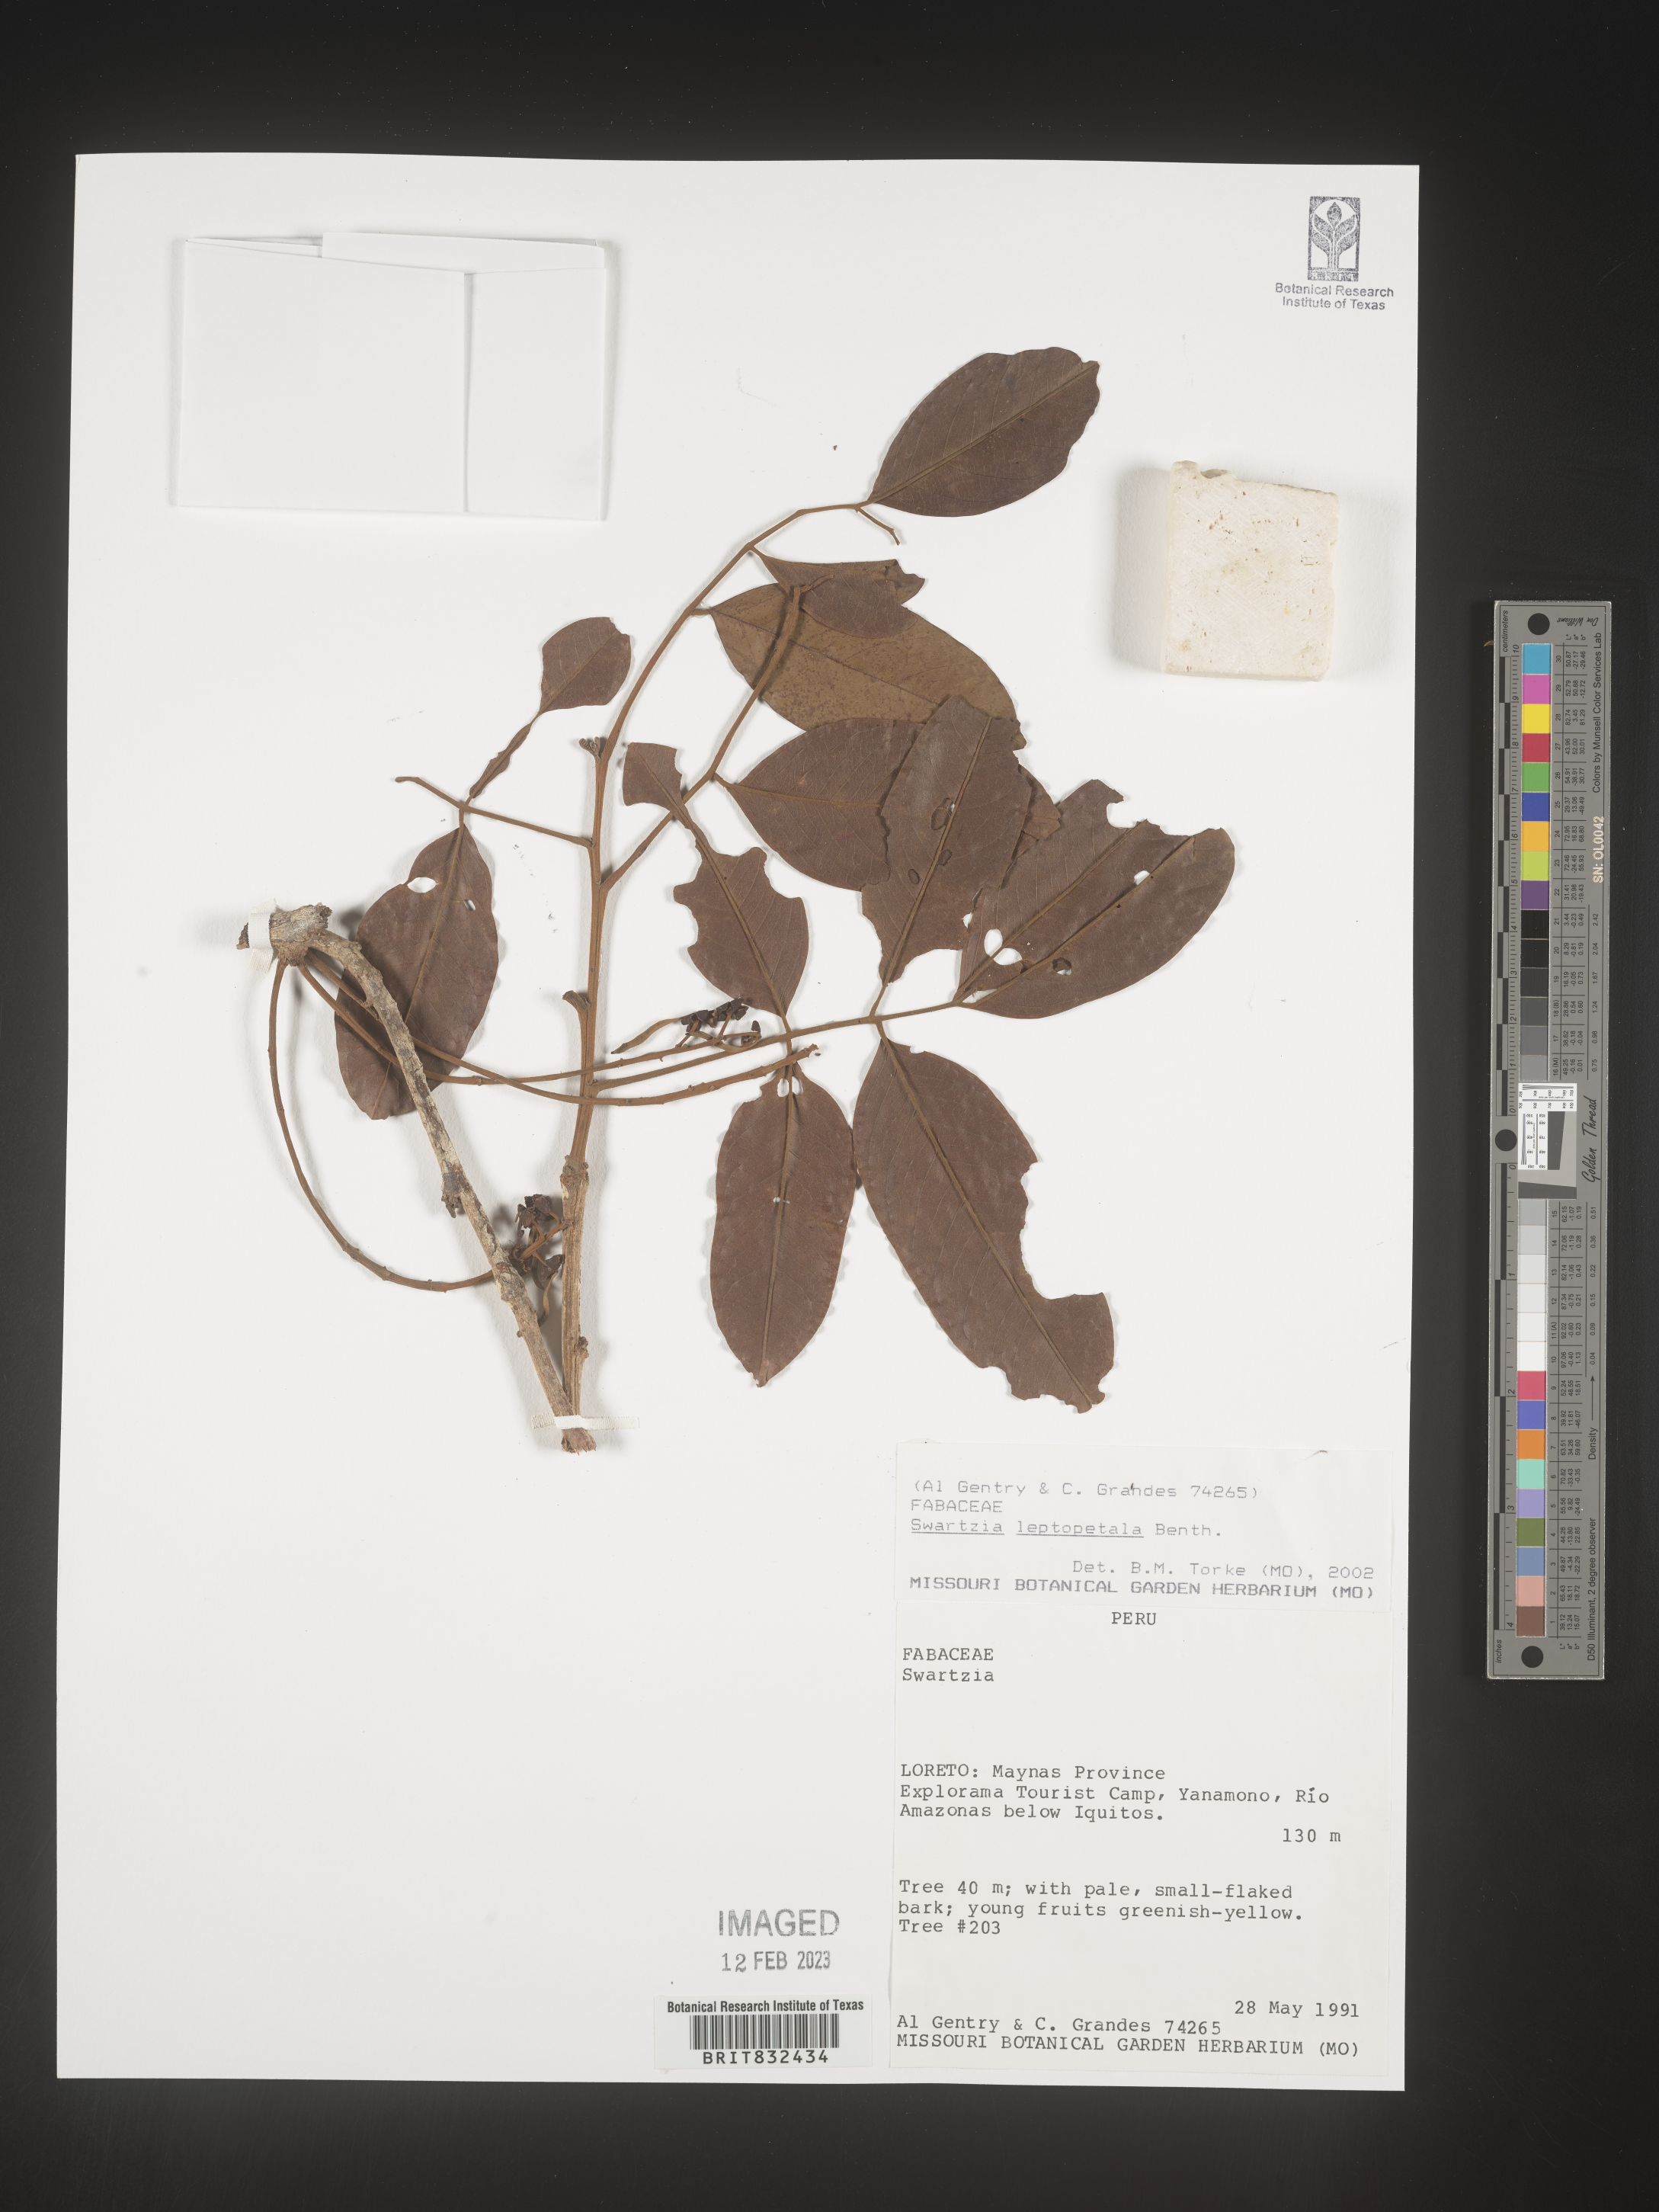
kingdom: Plantae
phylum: Tracheophyta
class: Magnoliopsida
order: Fabales
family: Fabaceae
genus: Swartzia
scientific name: Swartzia
